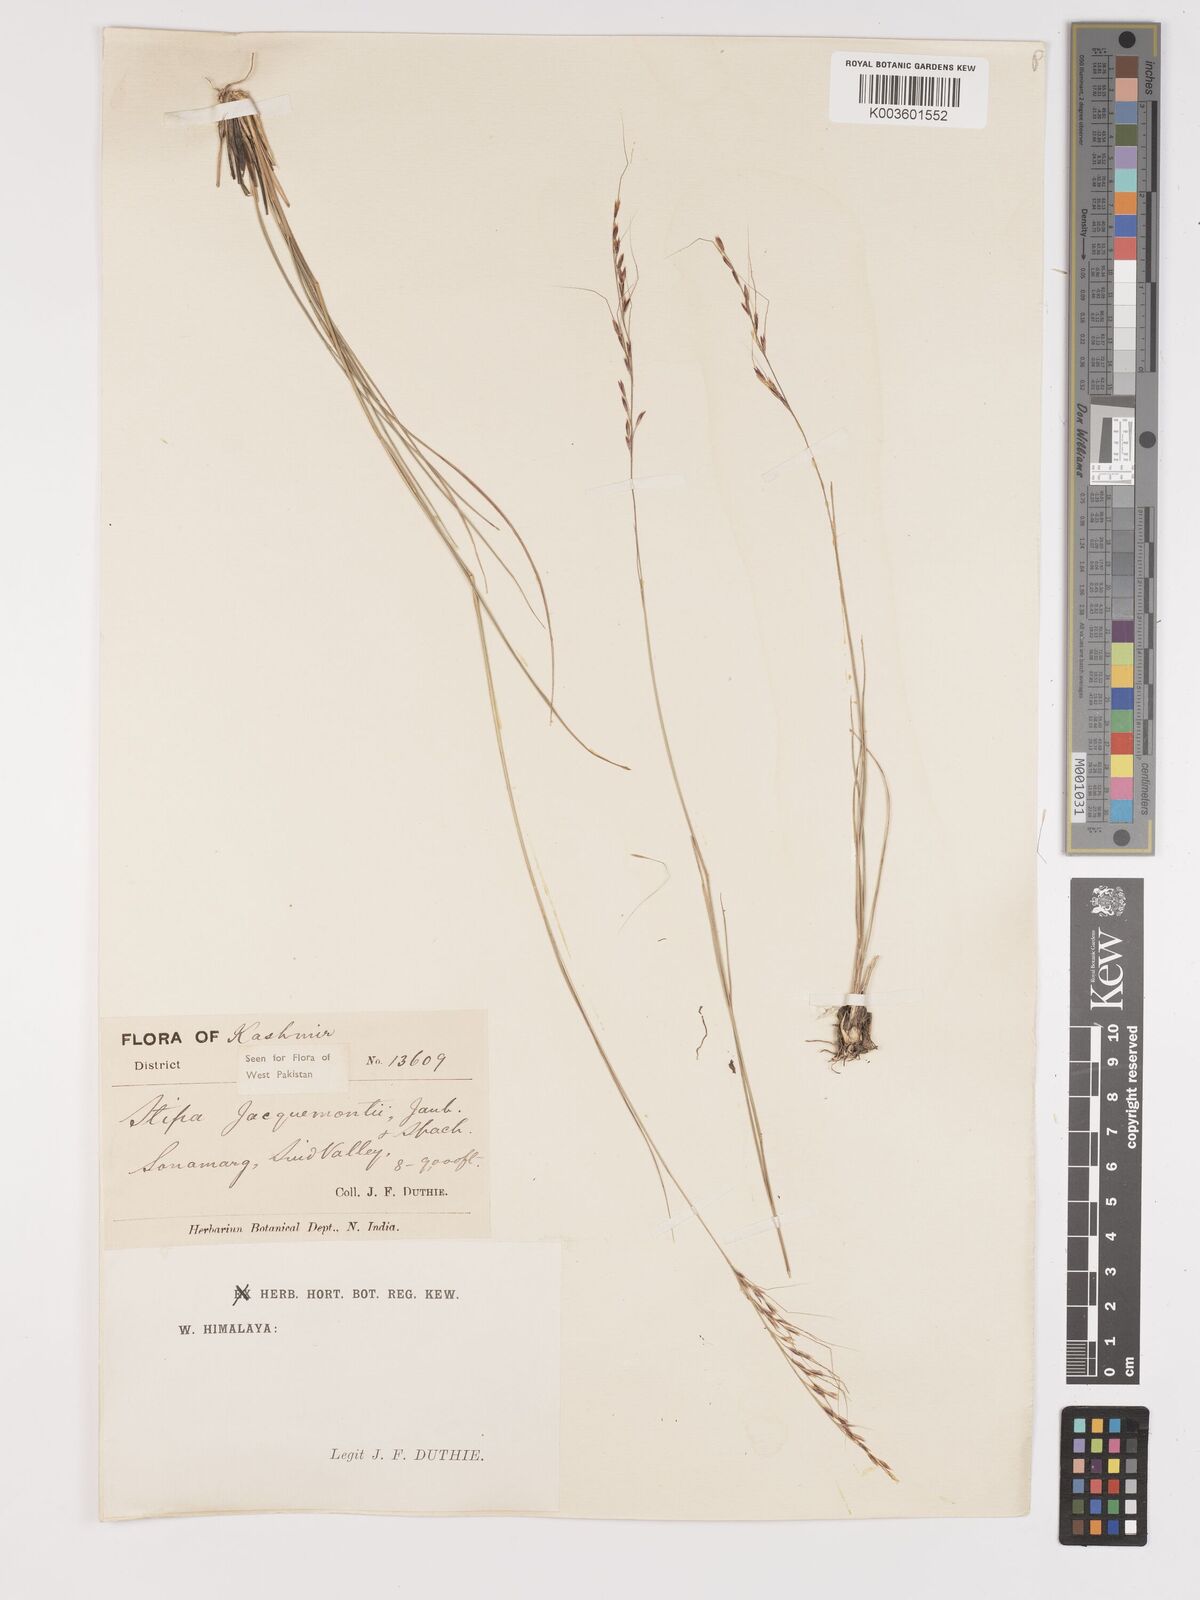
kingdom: Plantae
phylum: Tracheophyta
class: Liliopsida
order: Poales
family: Poaceae
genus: Achnatherum
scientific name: Achnatherum jacquemontii
